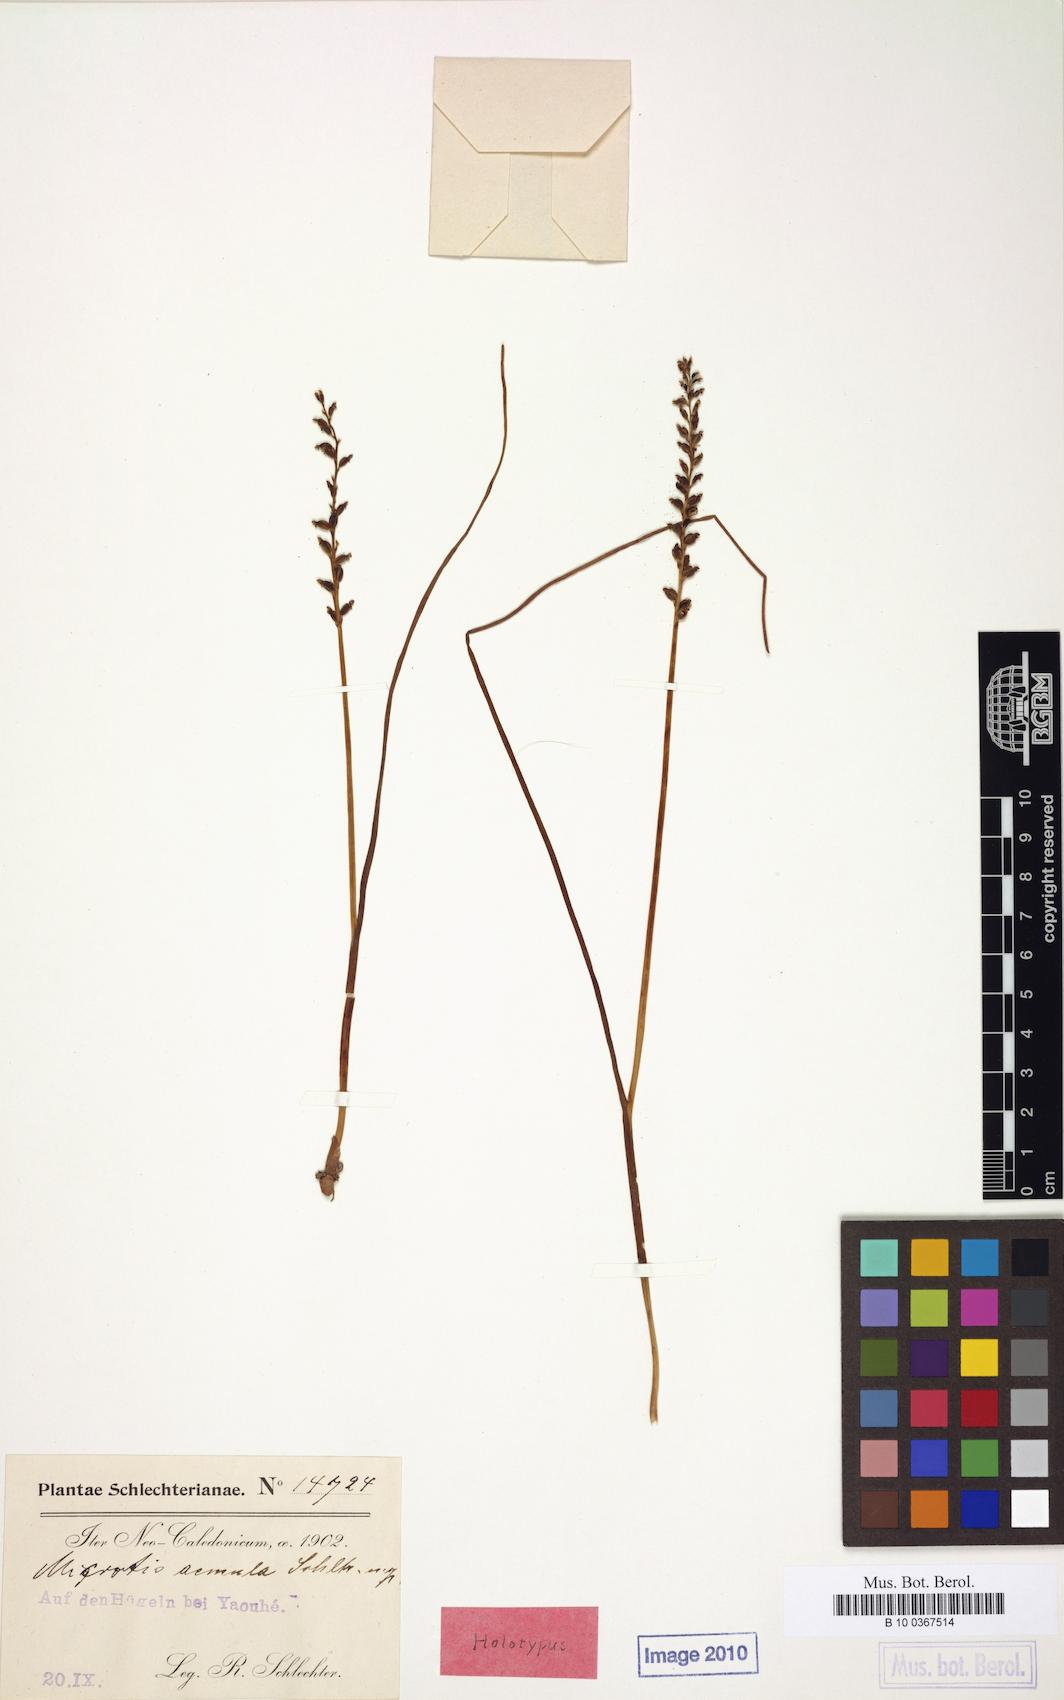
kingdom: Plantae
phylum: Tracheophyta
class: Liliopsida
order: Asparagales
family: Orchidaceae
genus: Microtis
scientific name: Microtis unifolia
